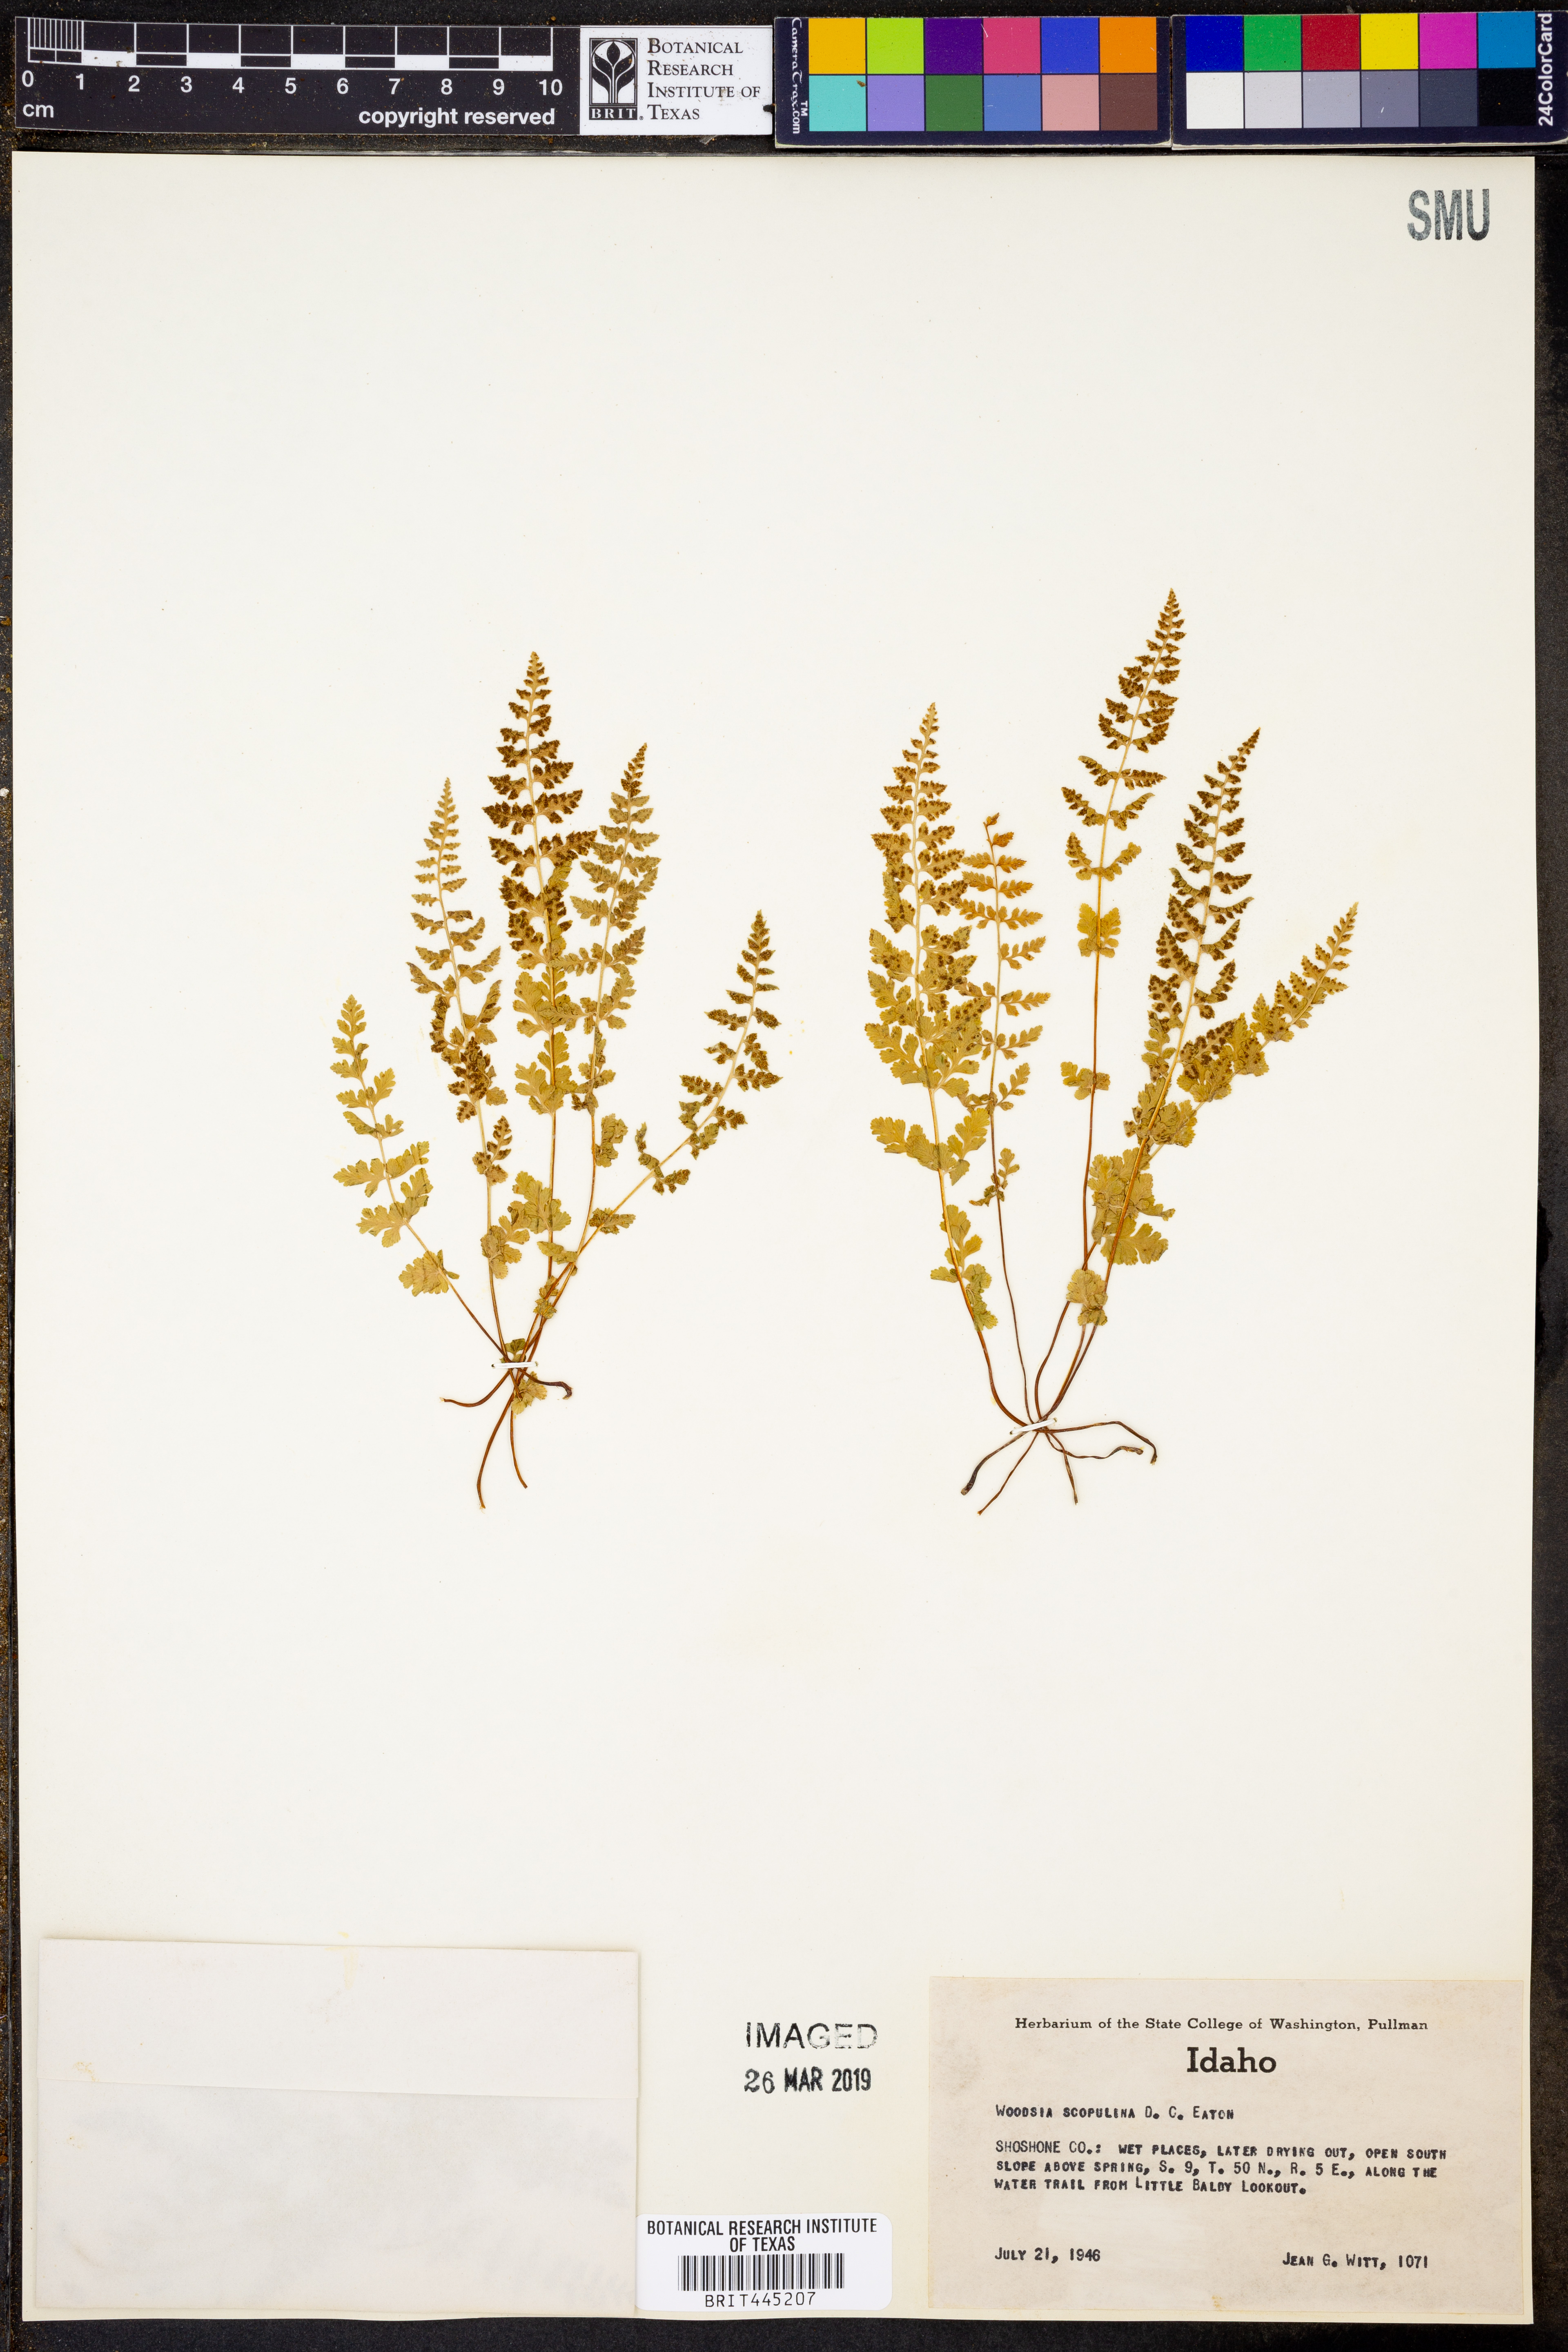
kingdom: Plantae
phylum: Tracheophyta
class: Polypodiopsida
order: Polypodiales
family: Woodsiaceae
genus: Physematium
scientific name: Physematium scopulinum
